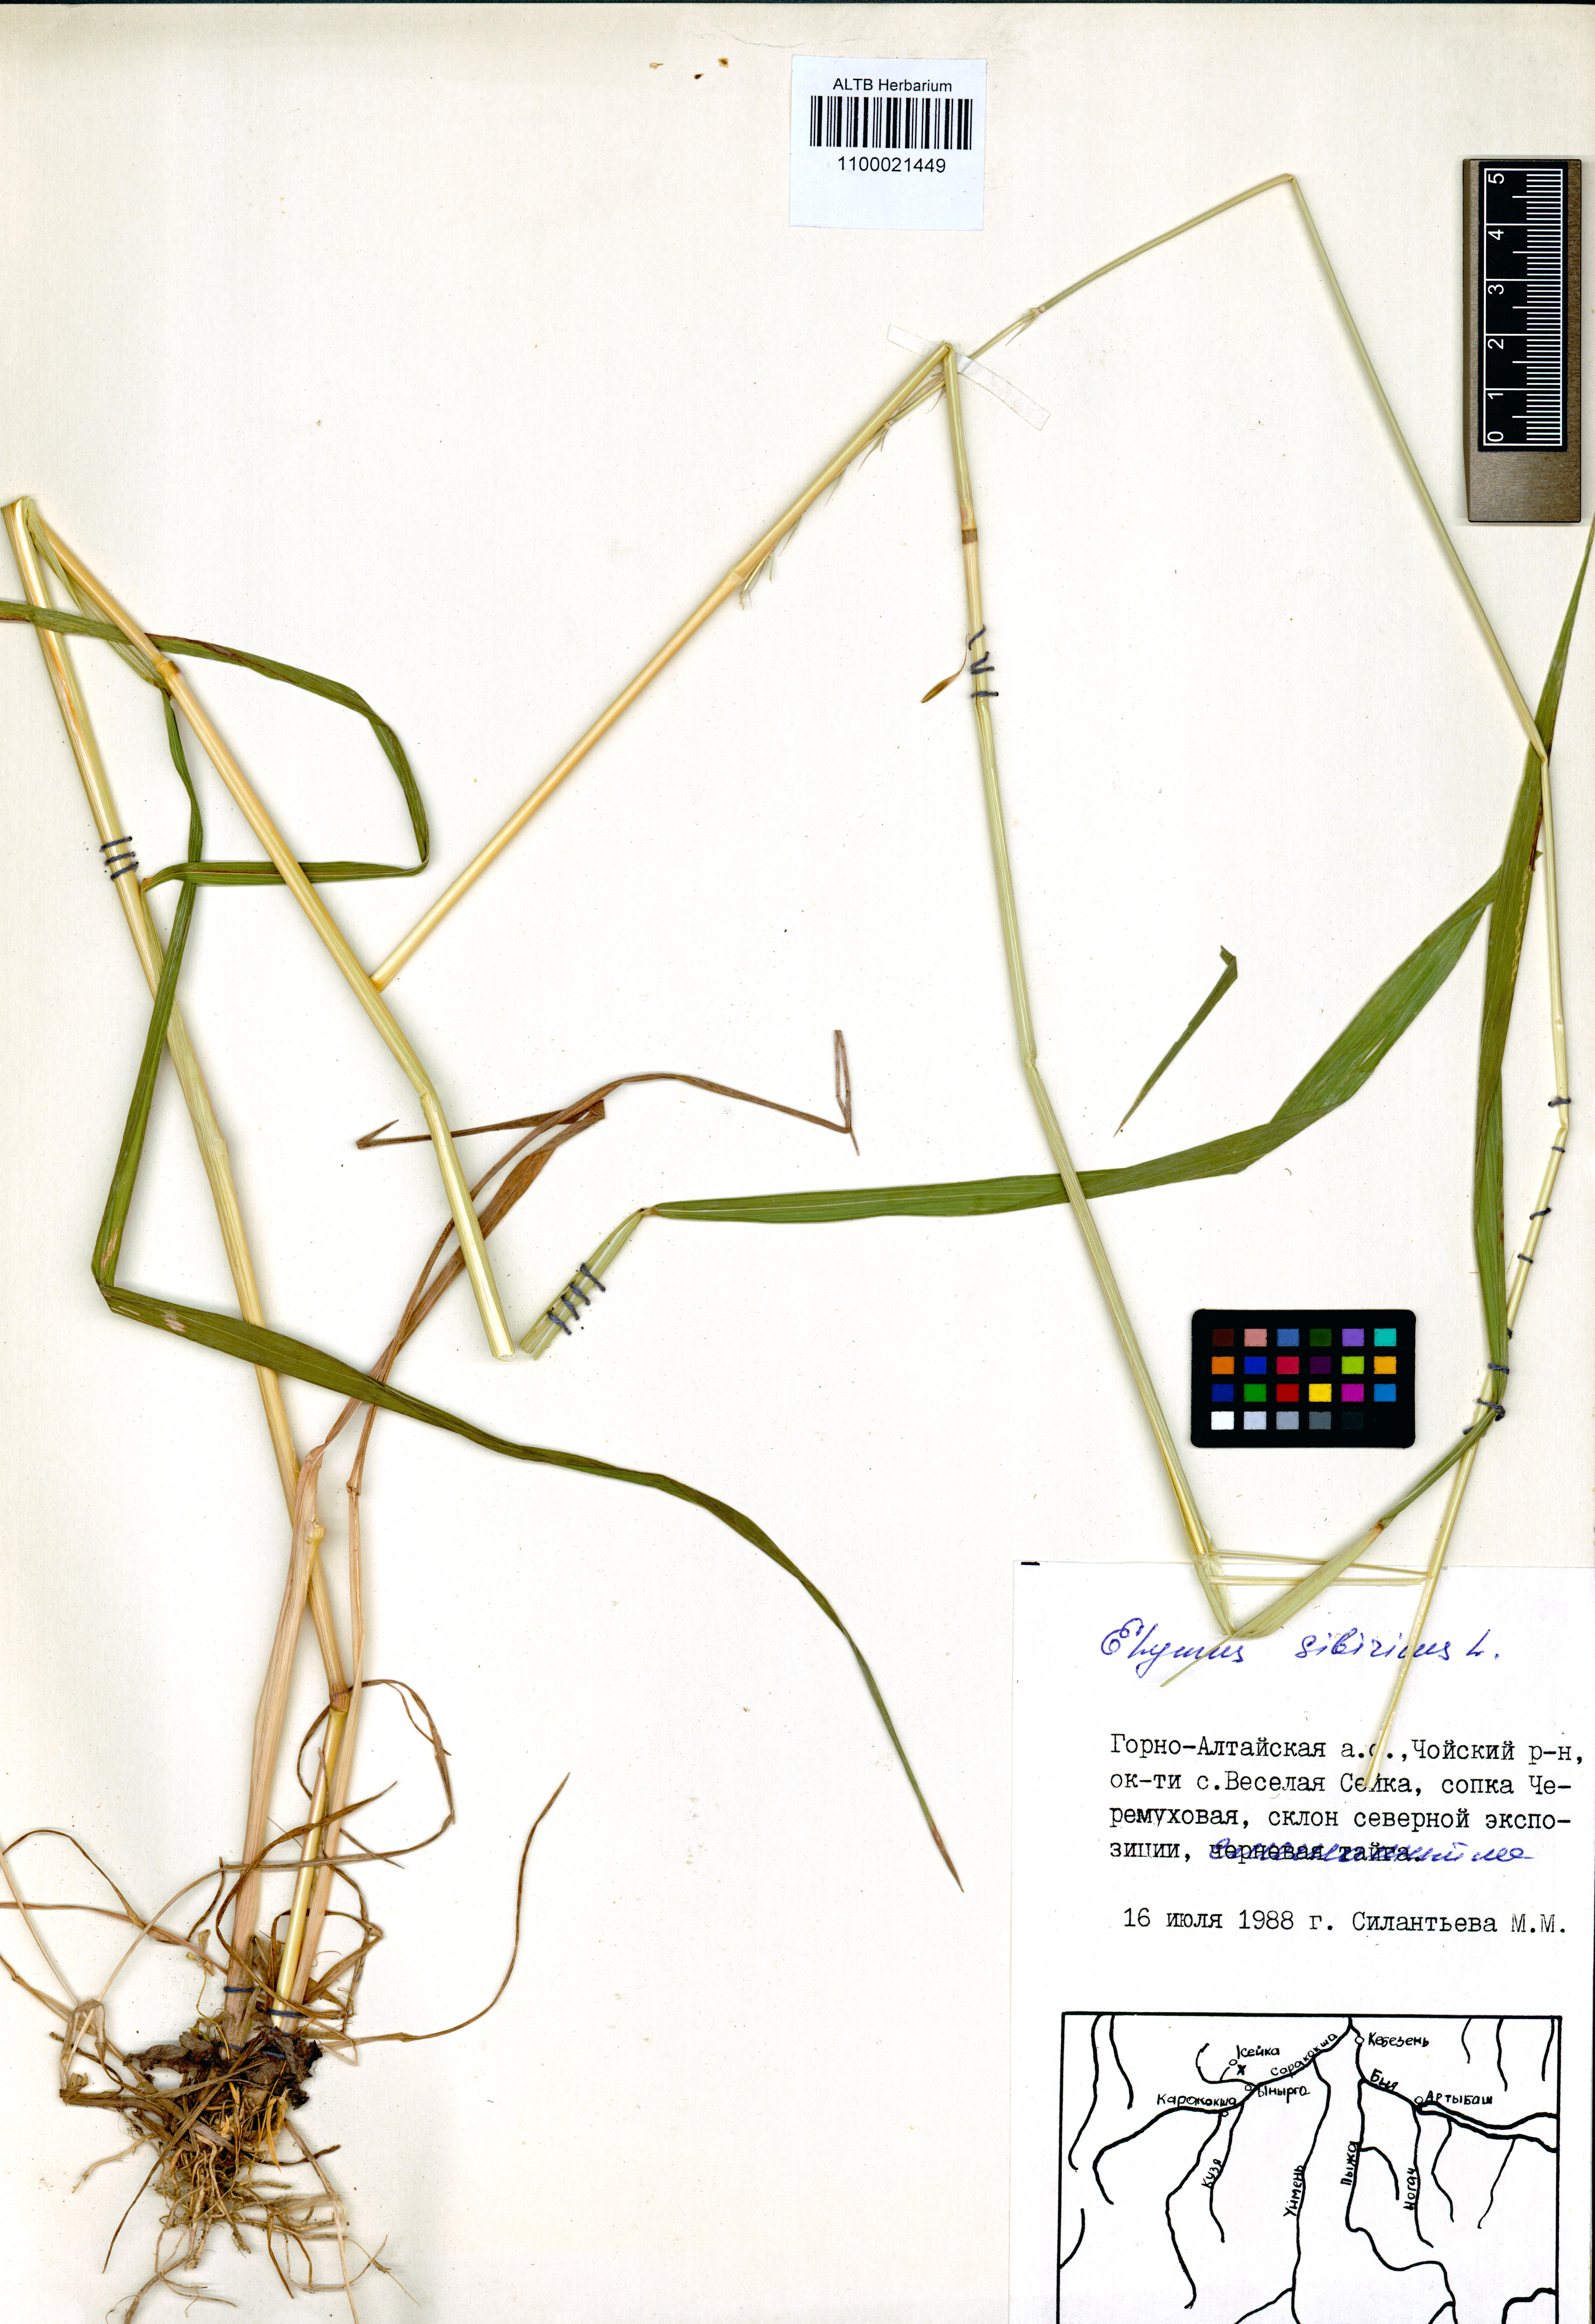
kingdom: Plantae
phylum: Tracheophyta
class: Liliopsida
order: Poales
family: Poaceae
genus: Elymus
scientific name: Elymus sibiricus
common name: Siberian wildrye
